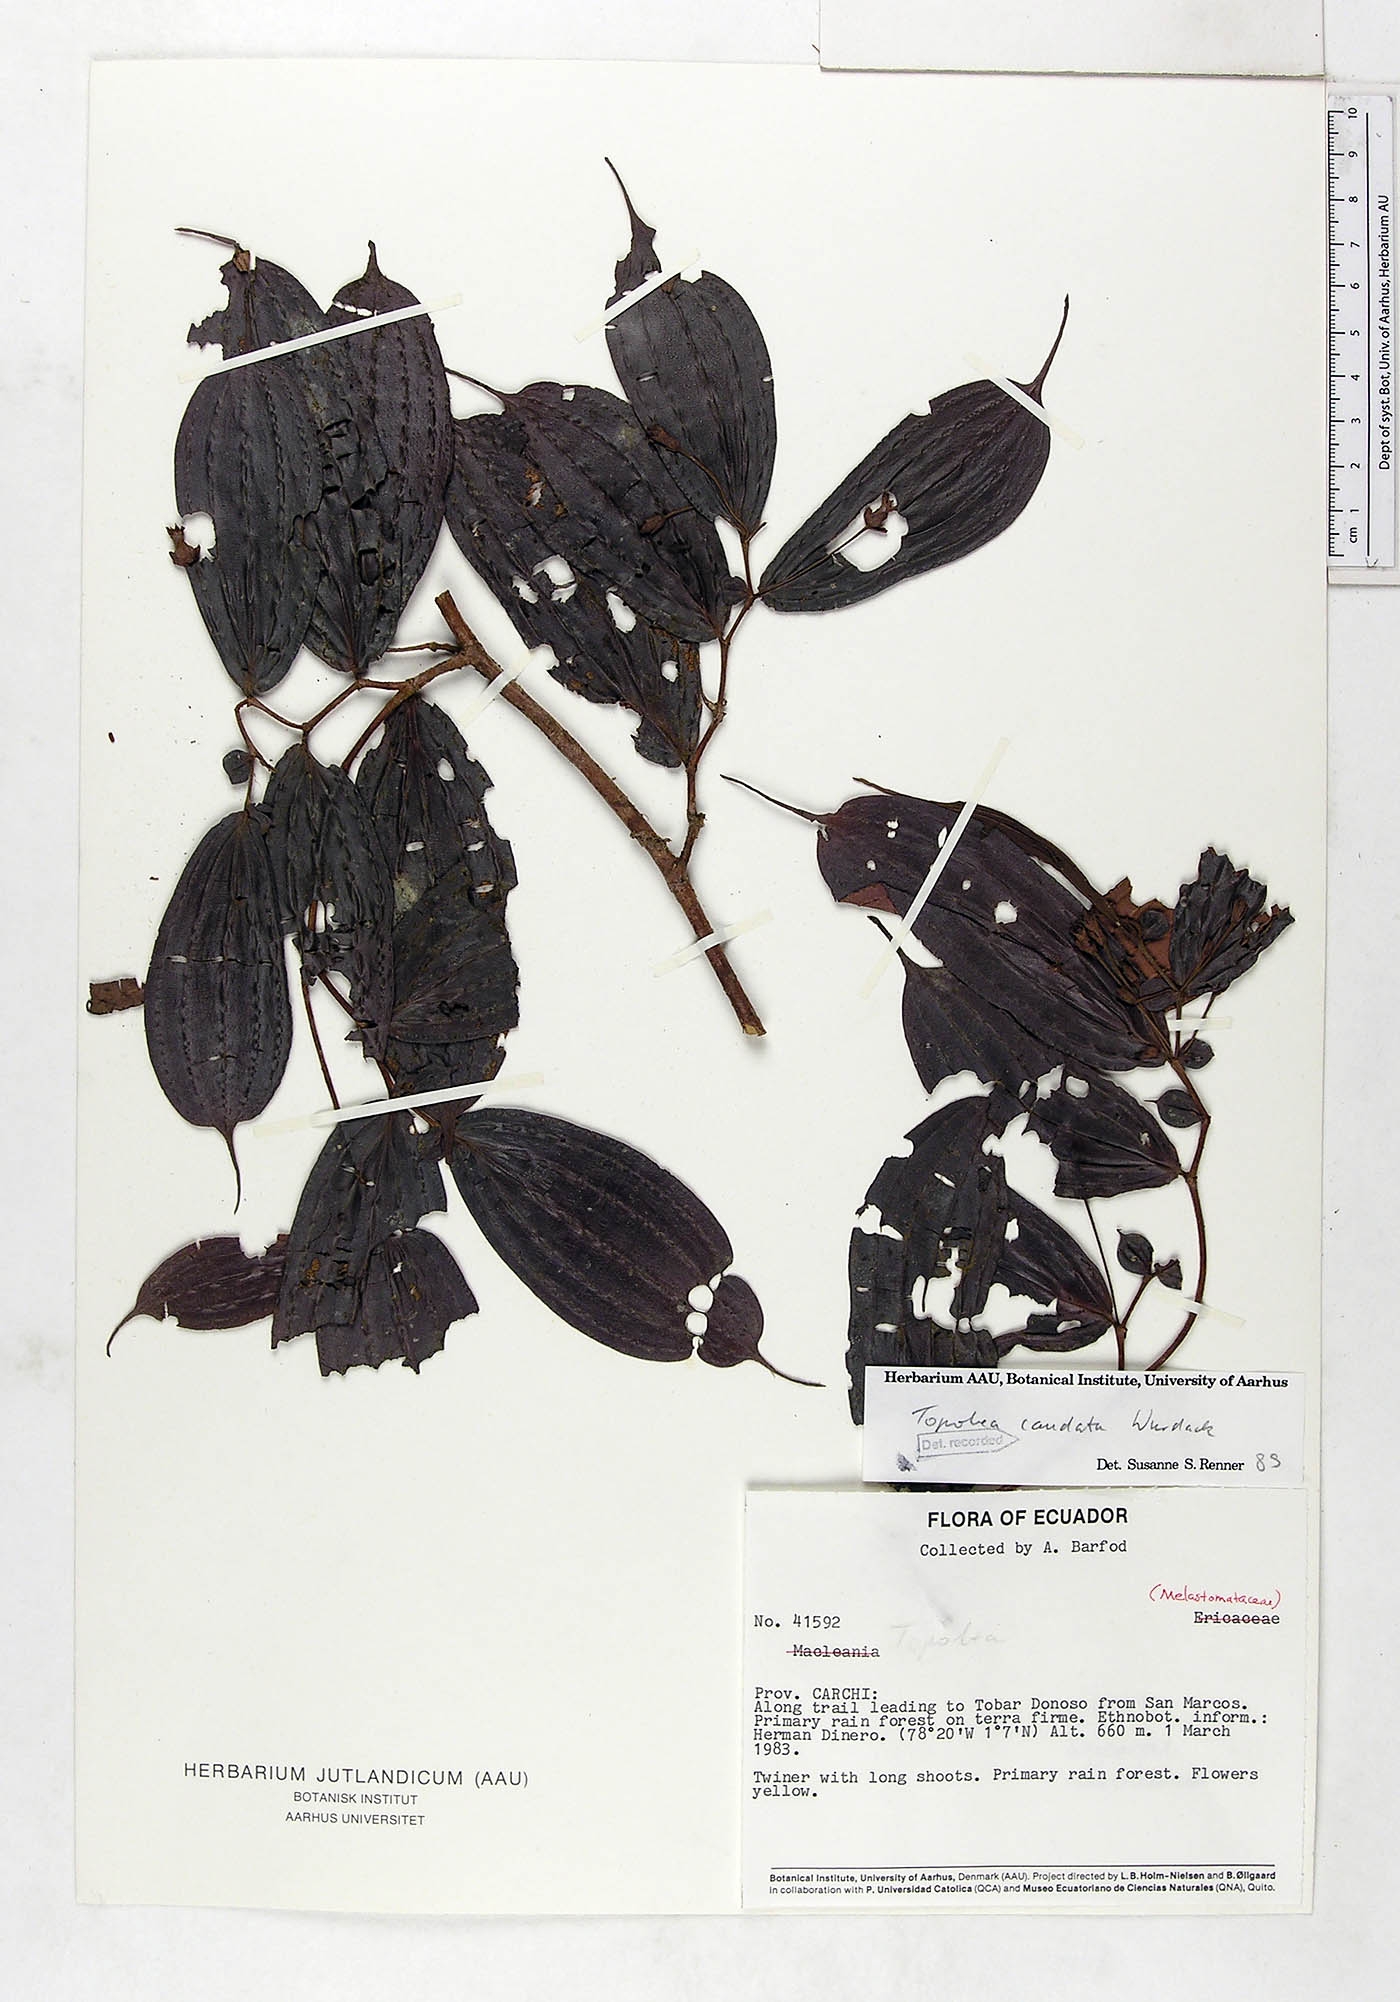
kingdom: Plantae
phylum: Tracheophyta
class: Magnoliopsida
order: Myrtales
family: Melastomataceae
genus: Blakea
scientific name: Blakea horologica
